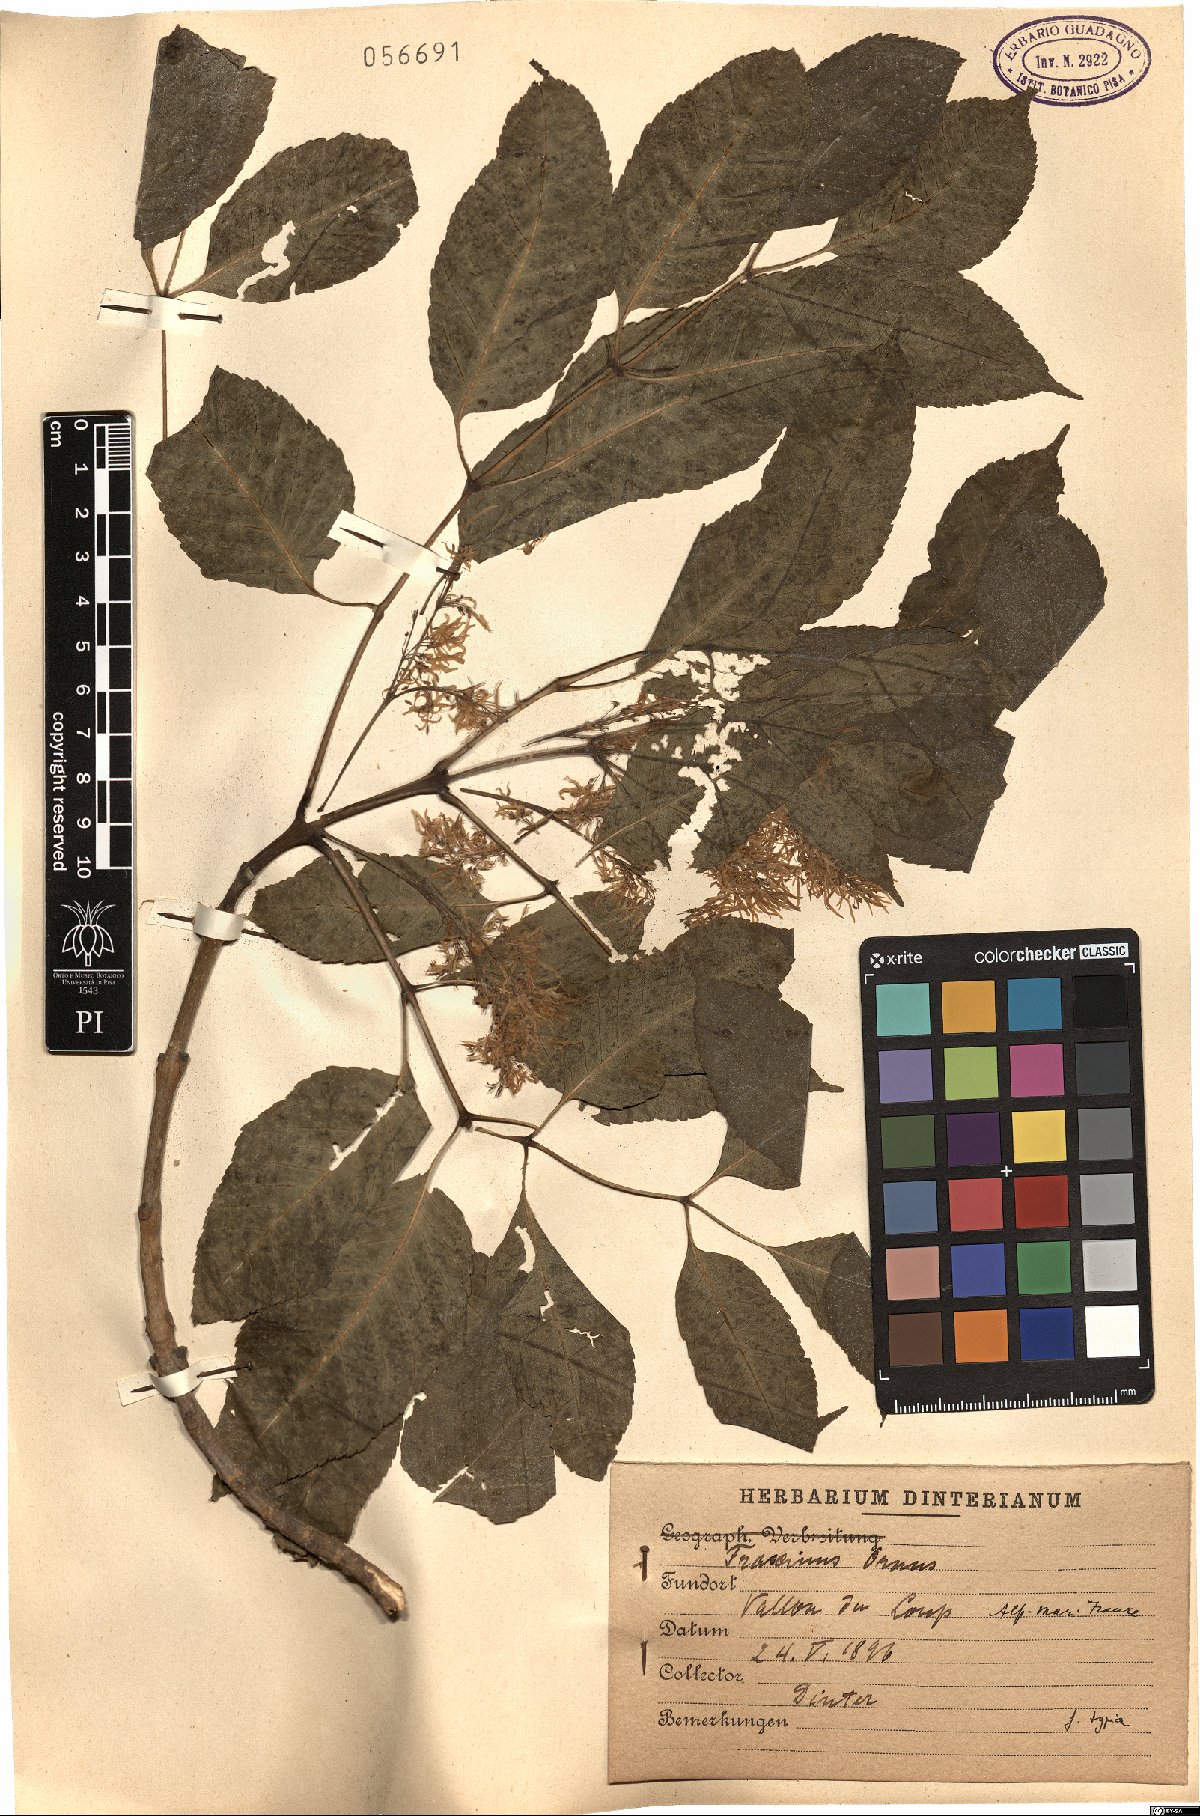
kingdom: Plantae
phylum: Tracheophyta
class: Magnoliopsida
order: Lamiales
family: Oleaceae
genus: Fraxinus
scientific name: Fraxinus ornus
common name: Manna ash
